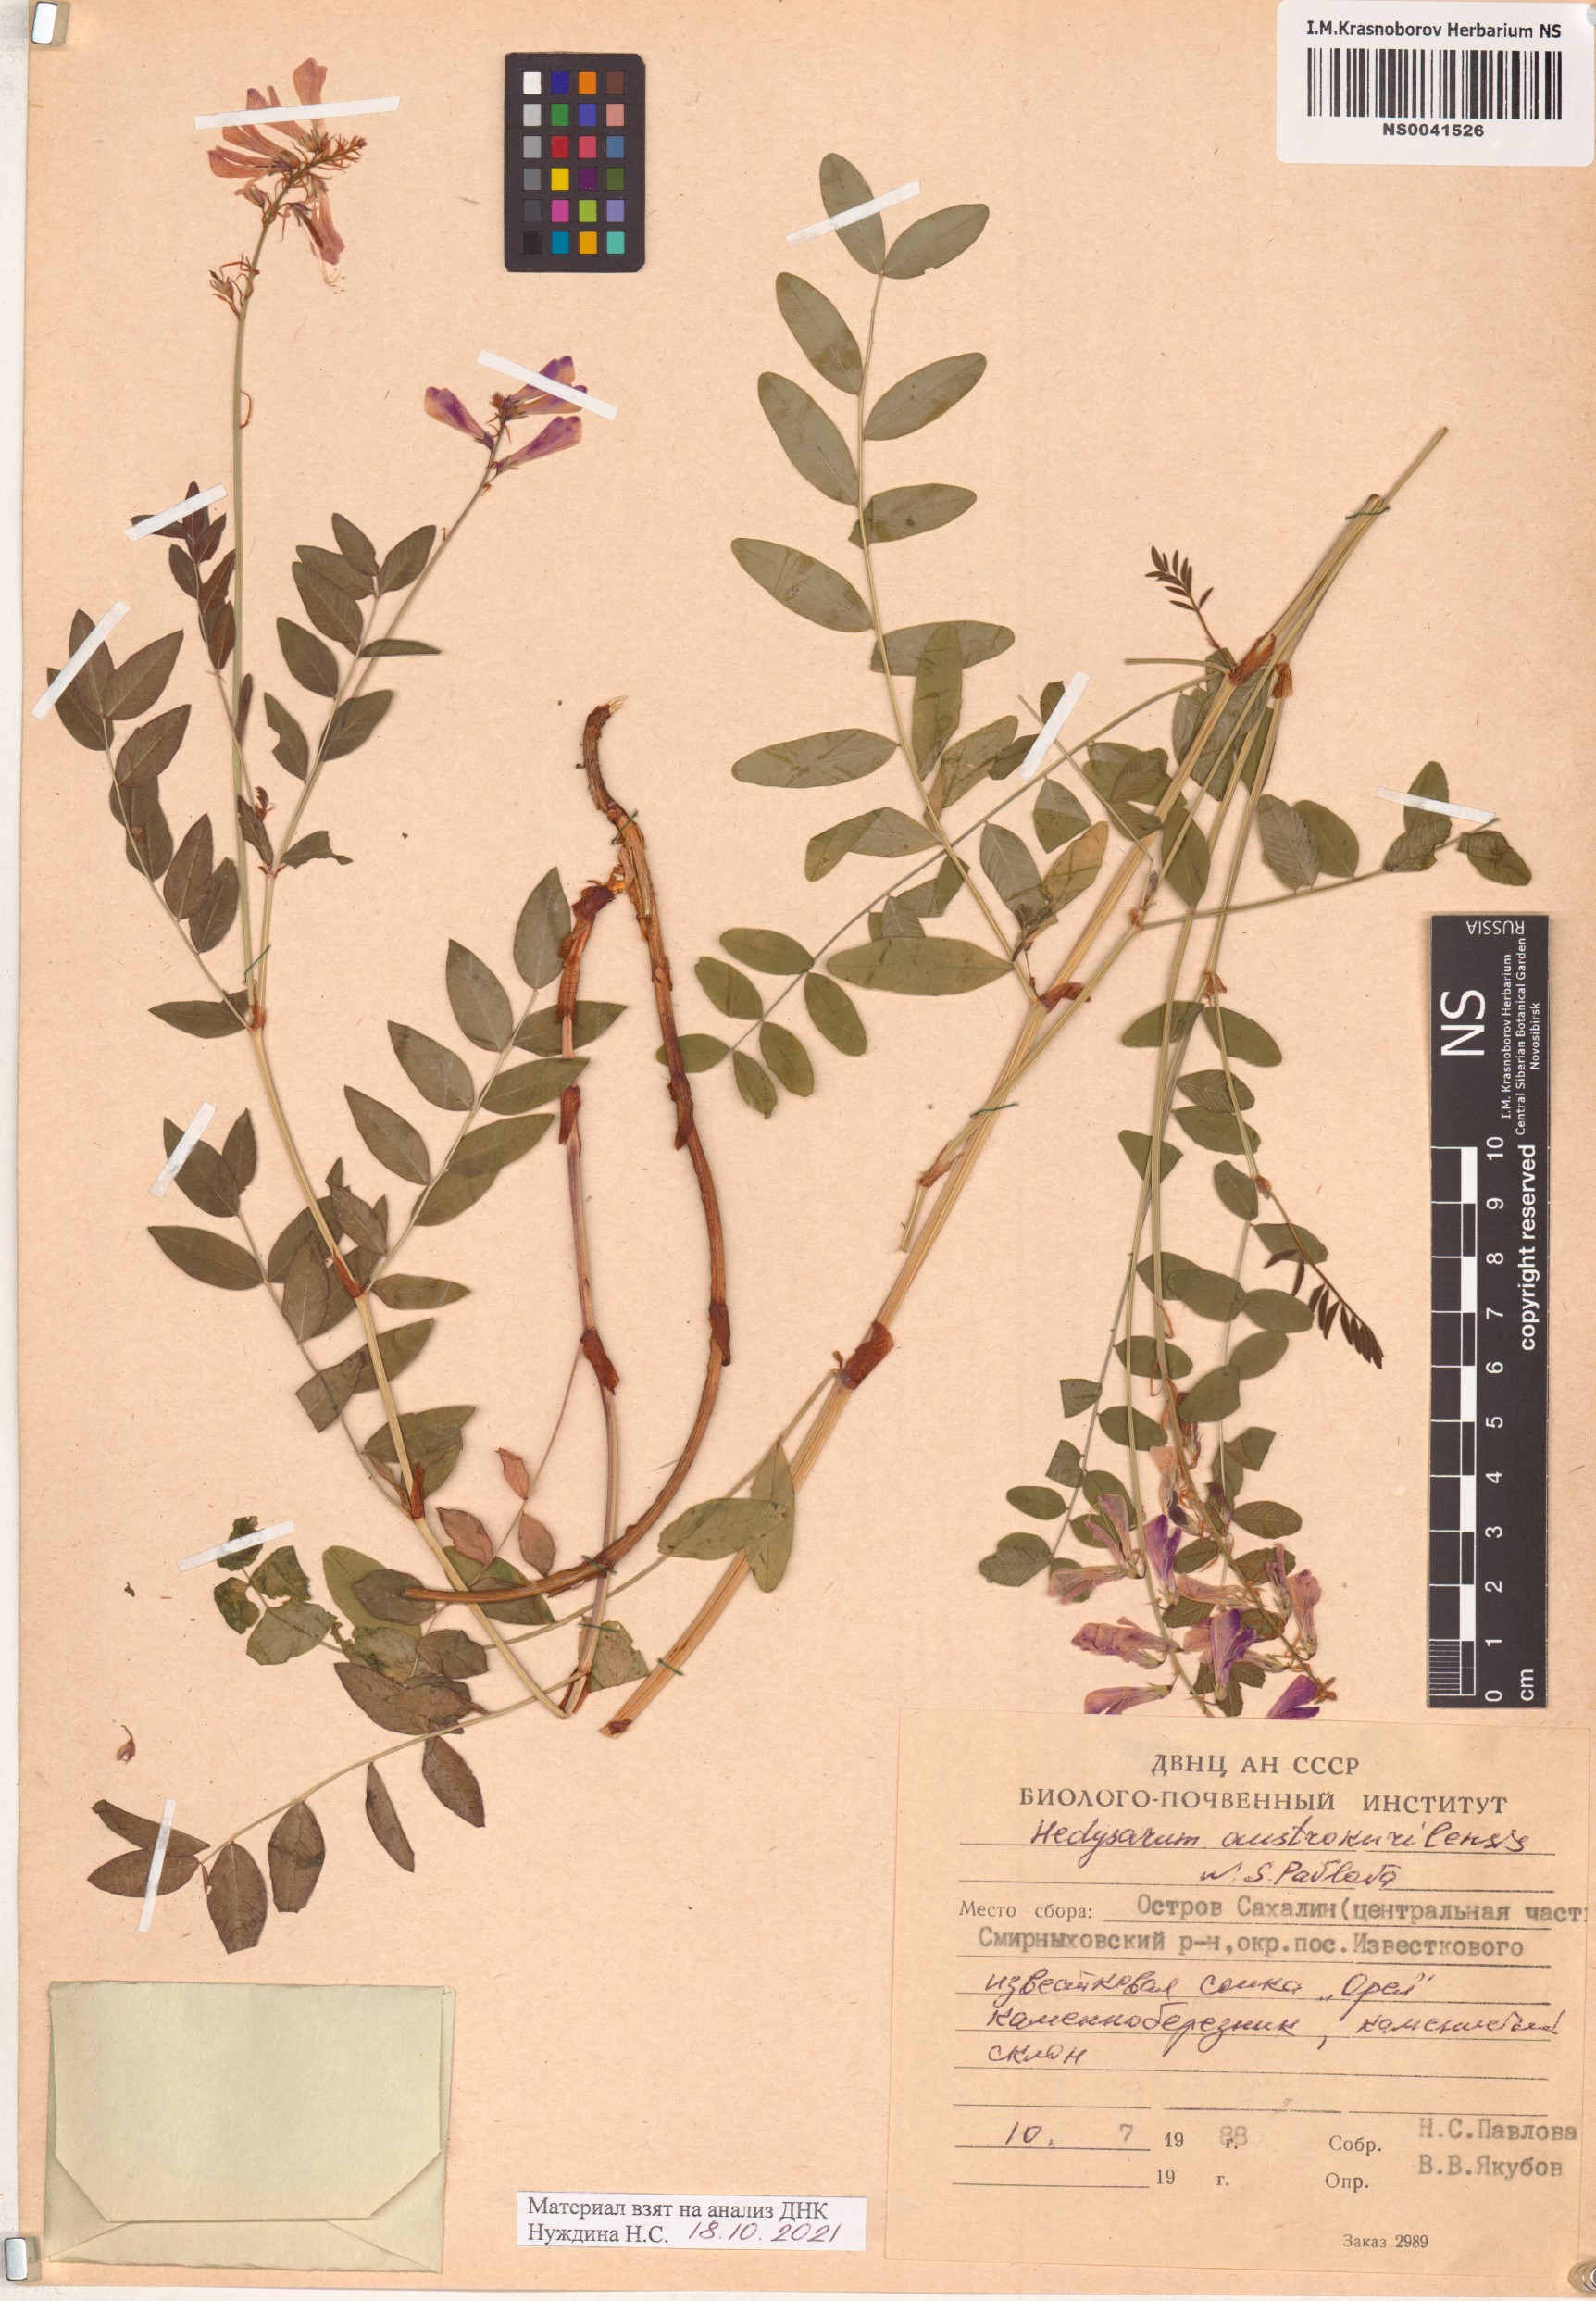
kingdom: Plantae
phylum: Tracheophyta
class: Magnoliopsida
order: Fabales
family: Fabaceae
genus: Hedysarum
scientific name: Hedysarum austrokurilense
